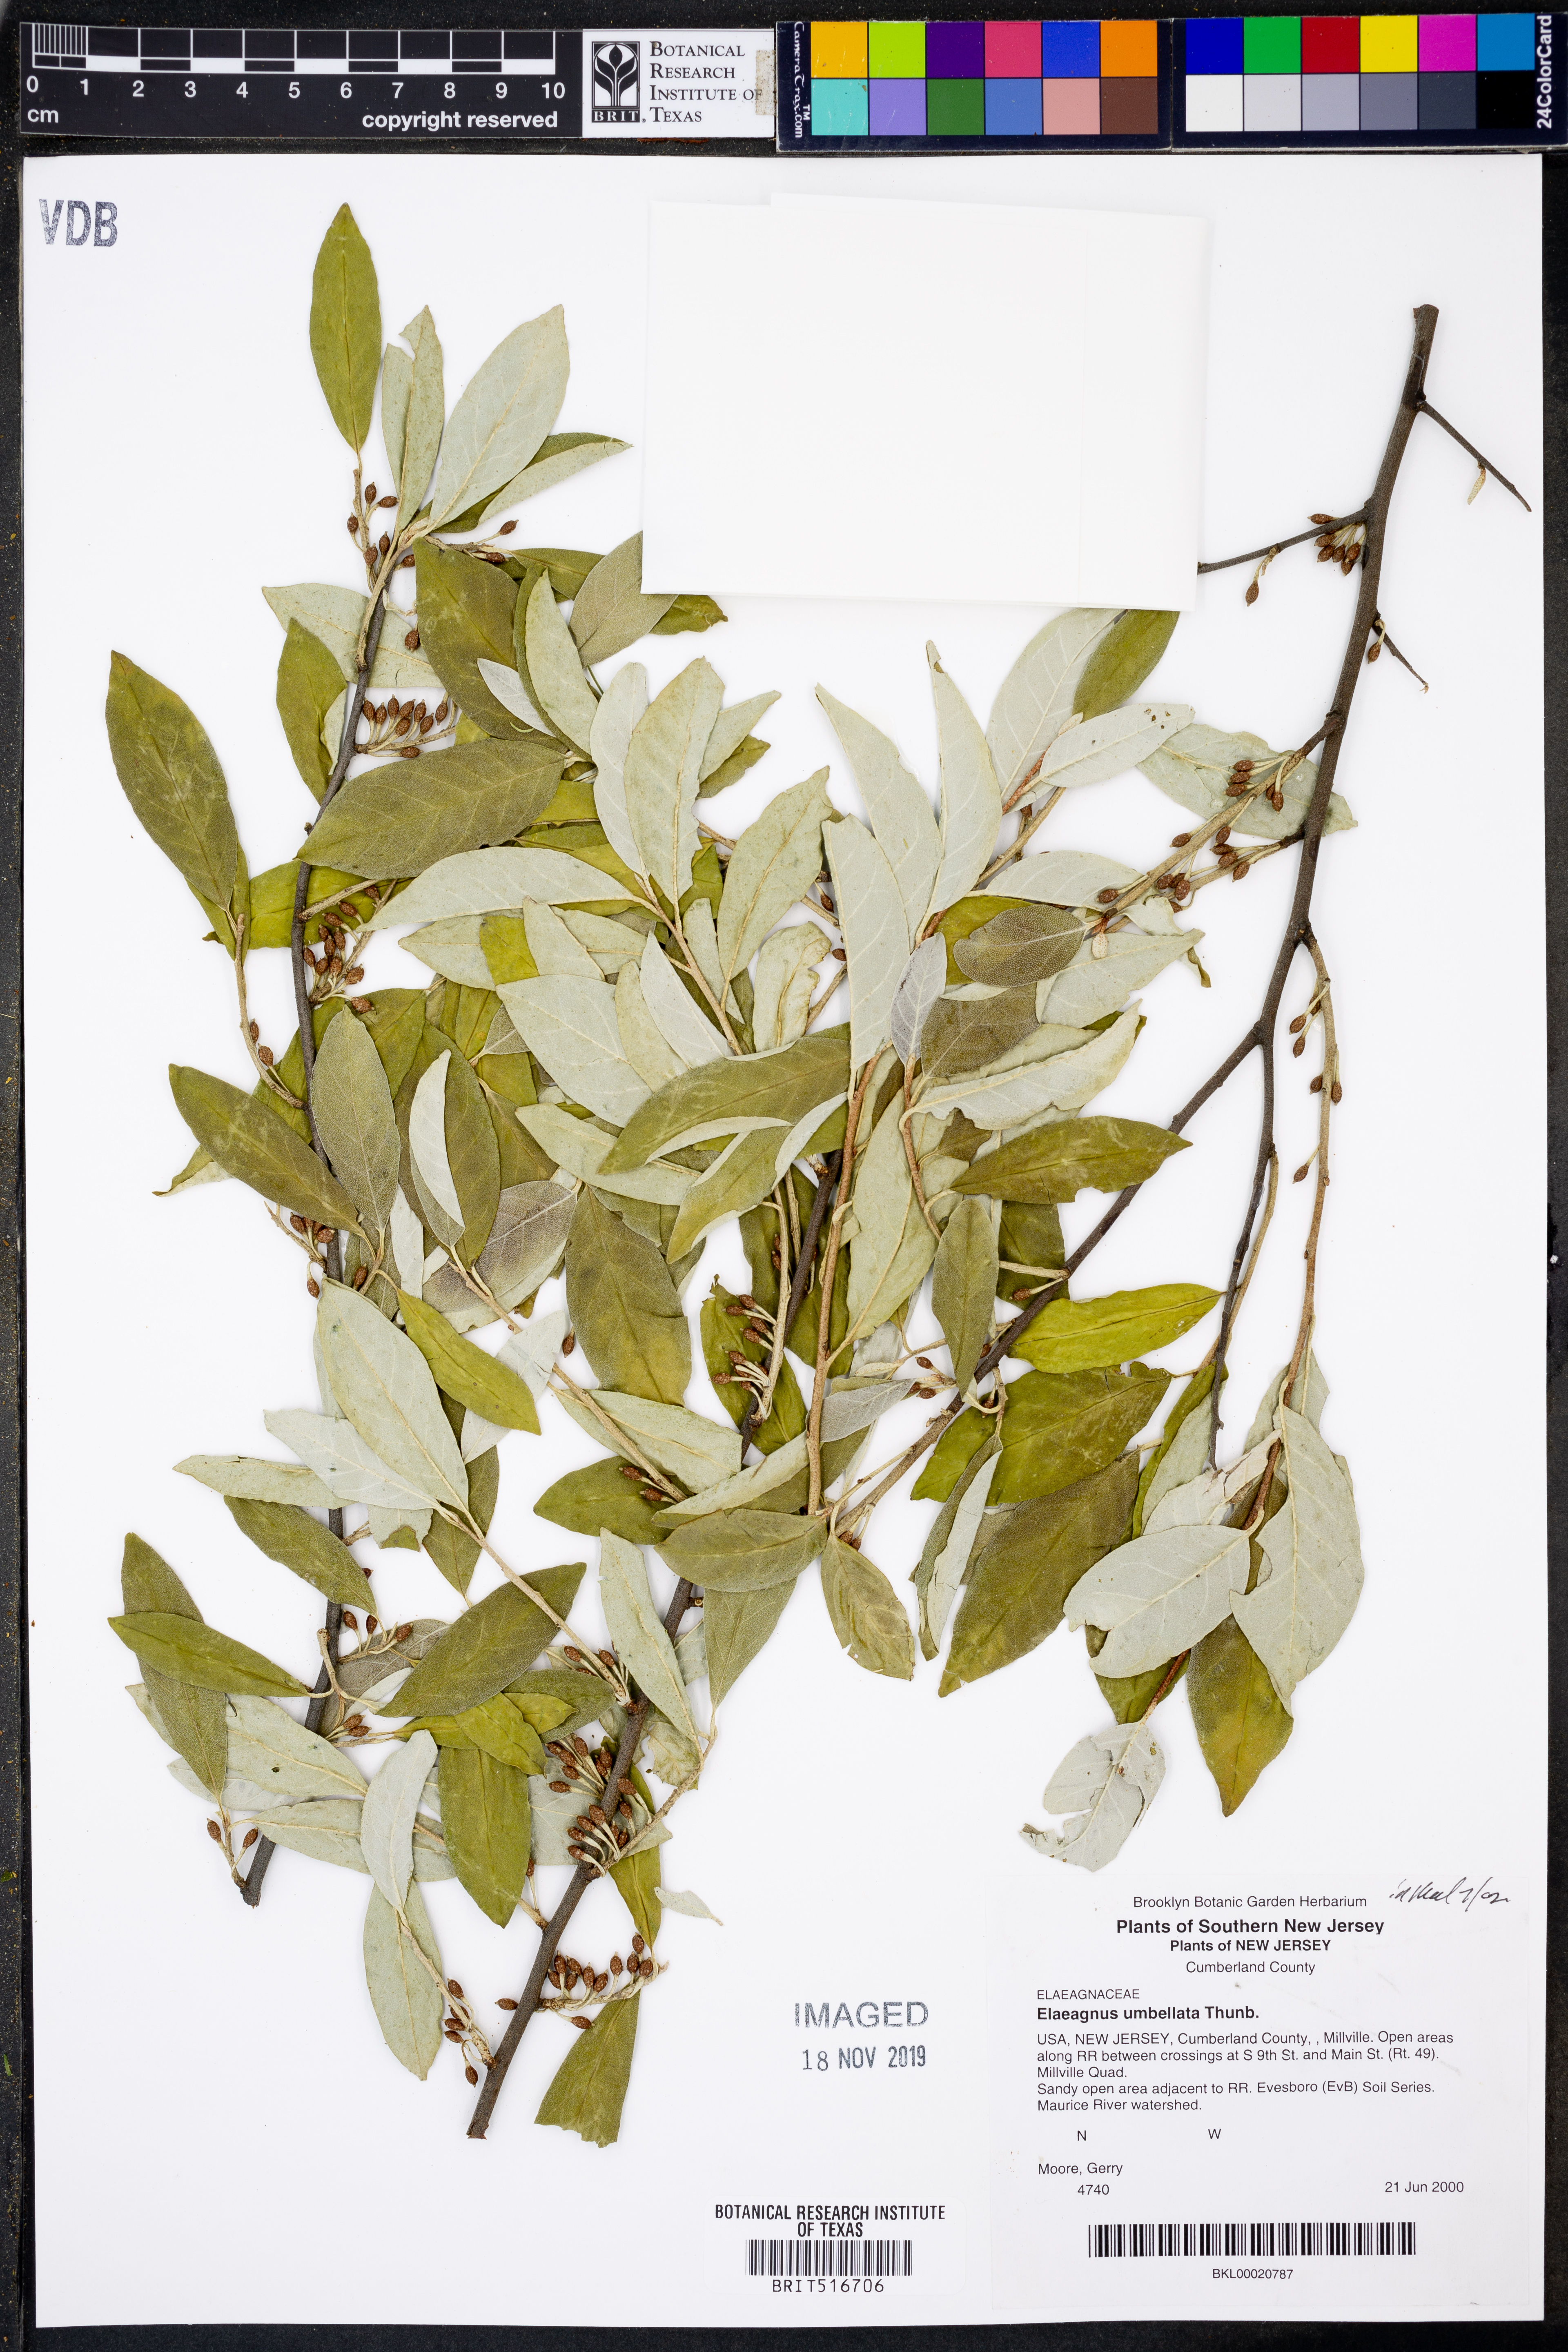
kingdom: Plantae
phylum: Tracheophyta
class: Magnoliopsida
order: Rosales
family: Elaeagnaceae
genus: Elaeagnus
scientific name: Elaeagnus umbellata
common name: Autumn olive
